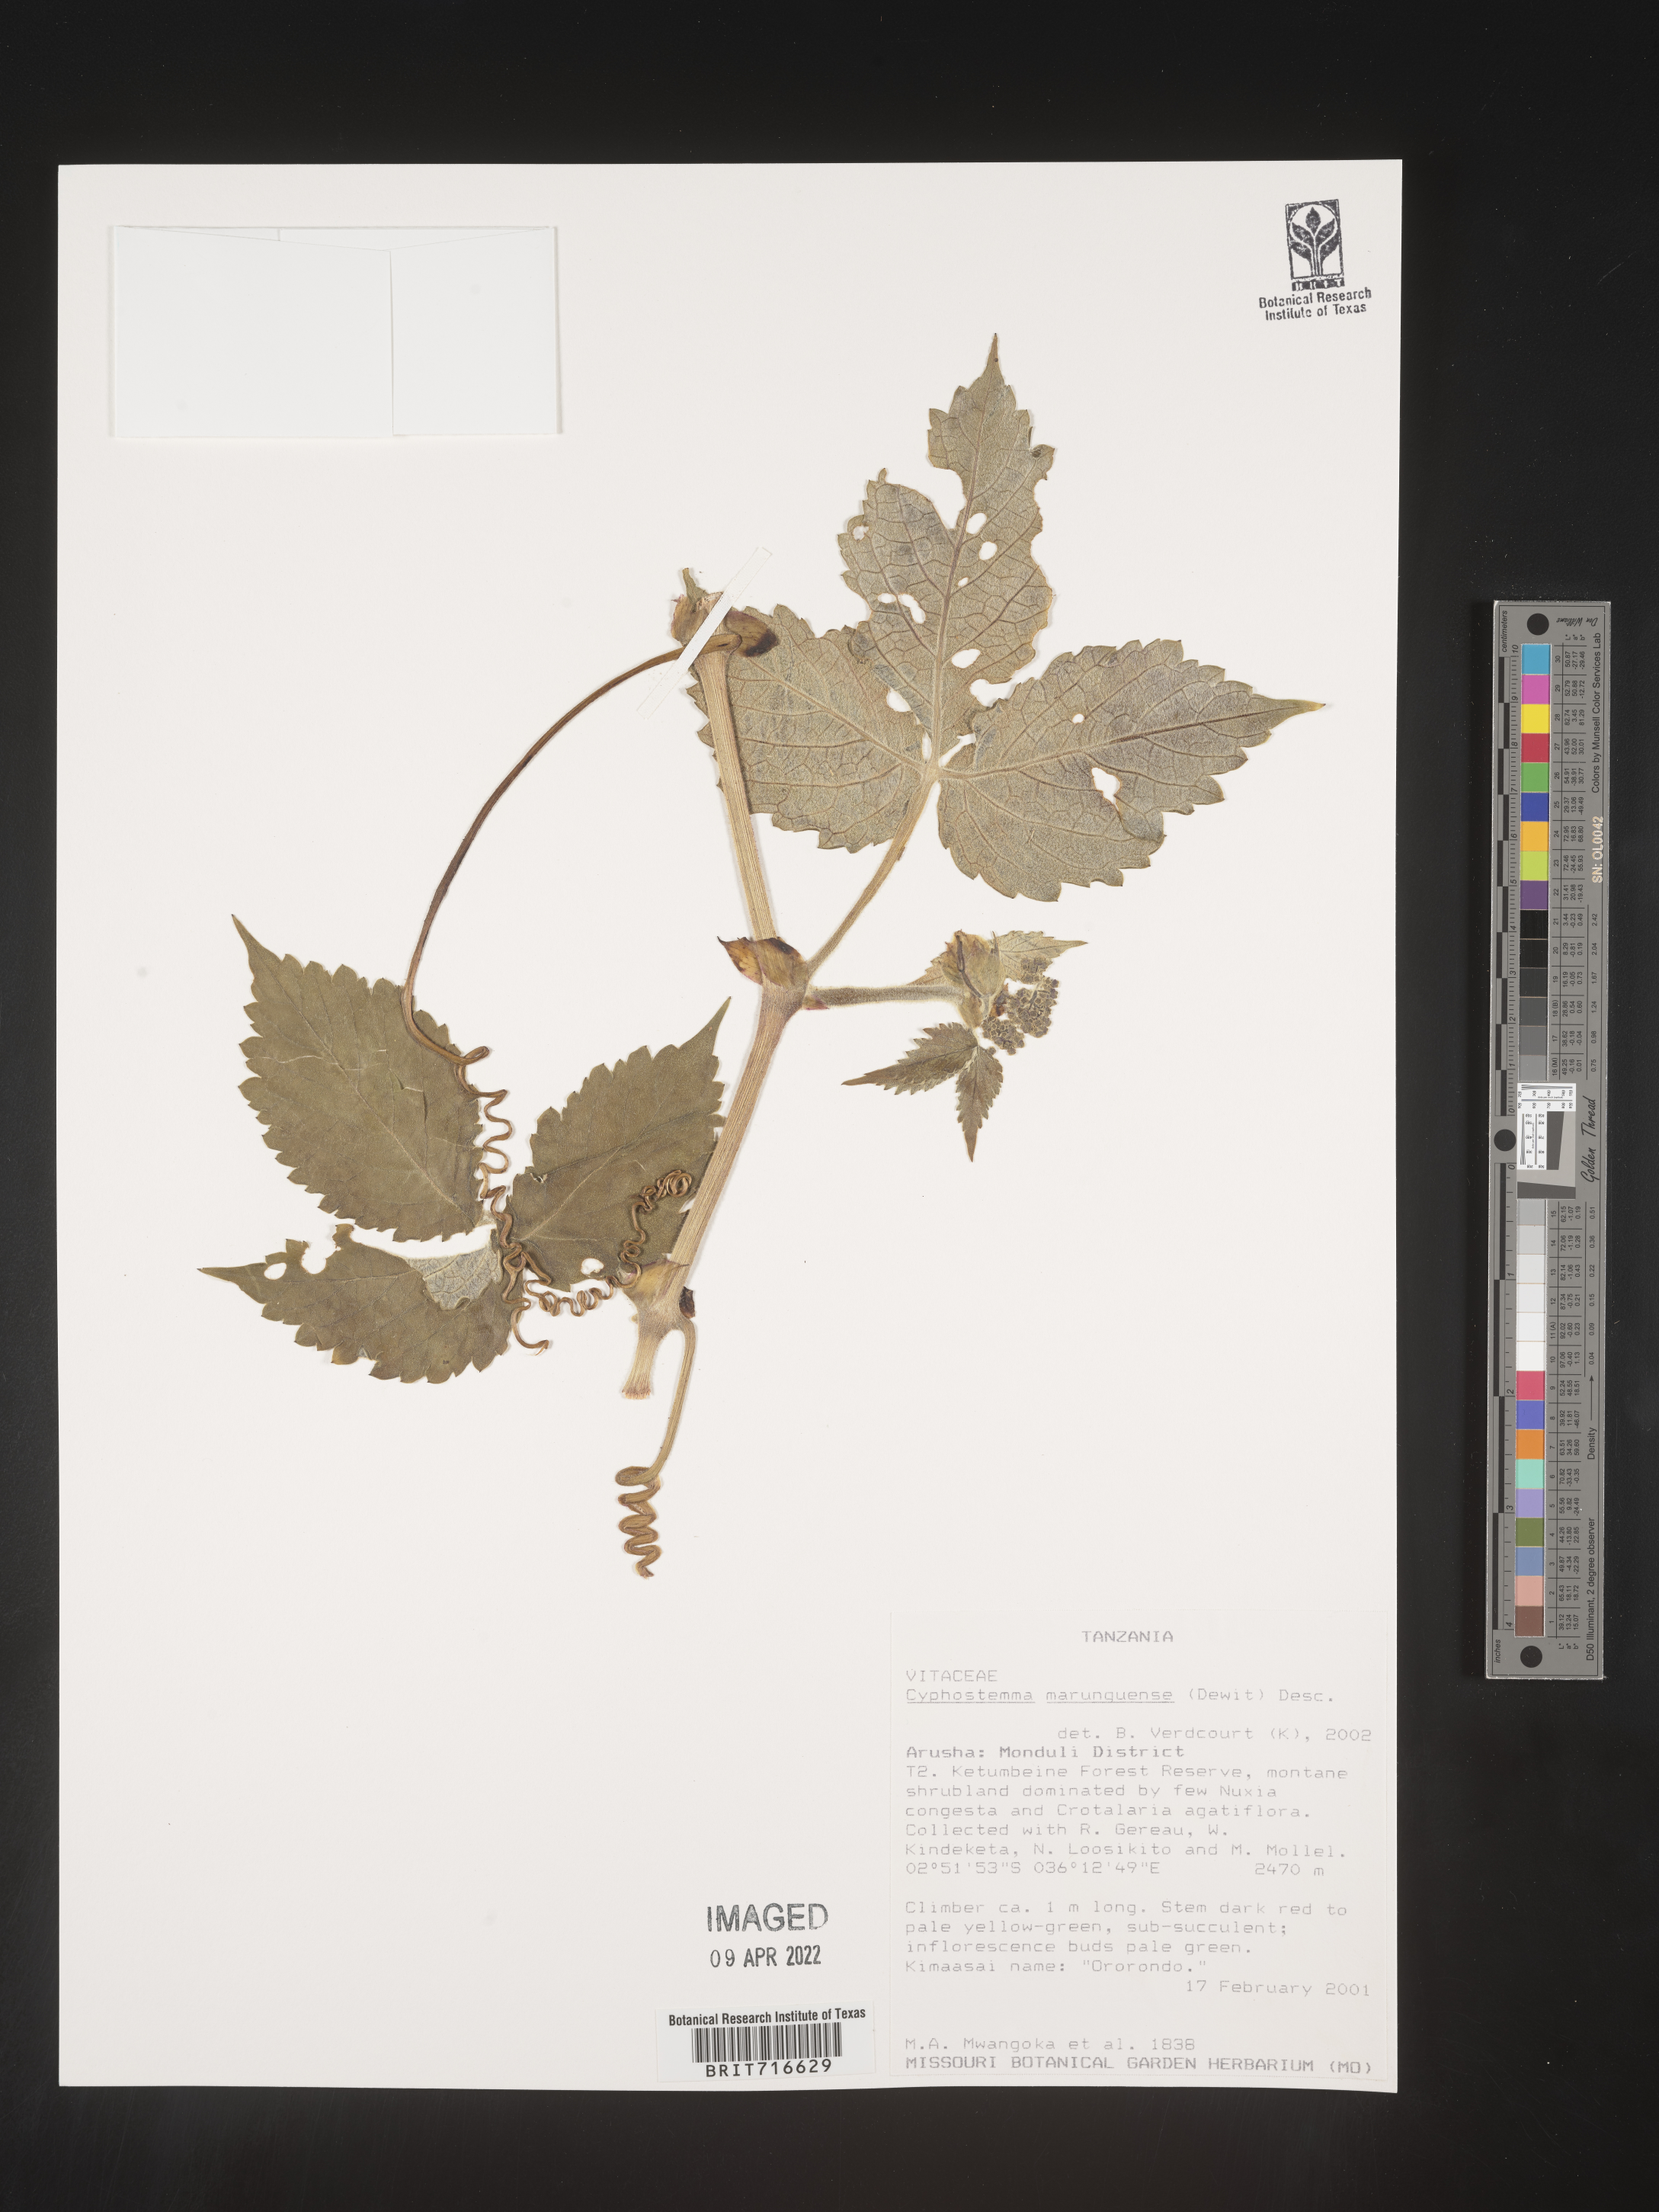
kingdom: Plantae
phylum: Tracheophyta
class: Magnoliopsida
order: Vitales
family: Vitaceae
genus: Cyphostemma
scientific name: Cyphostemma
